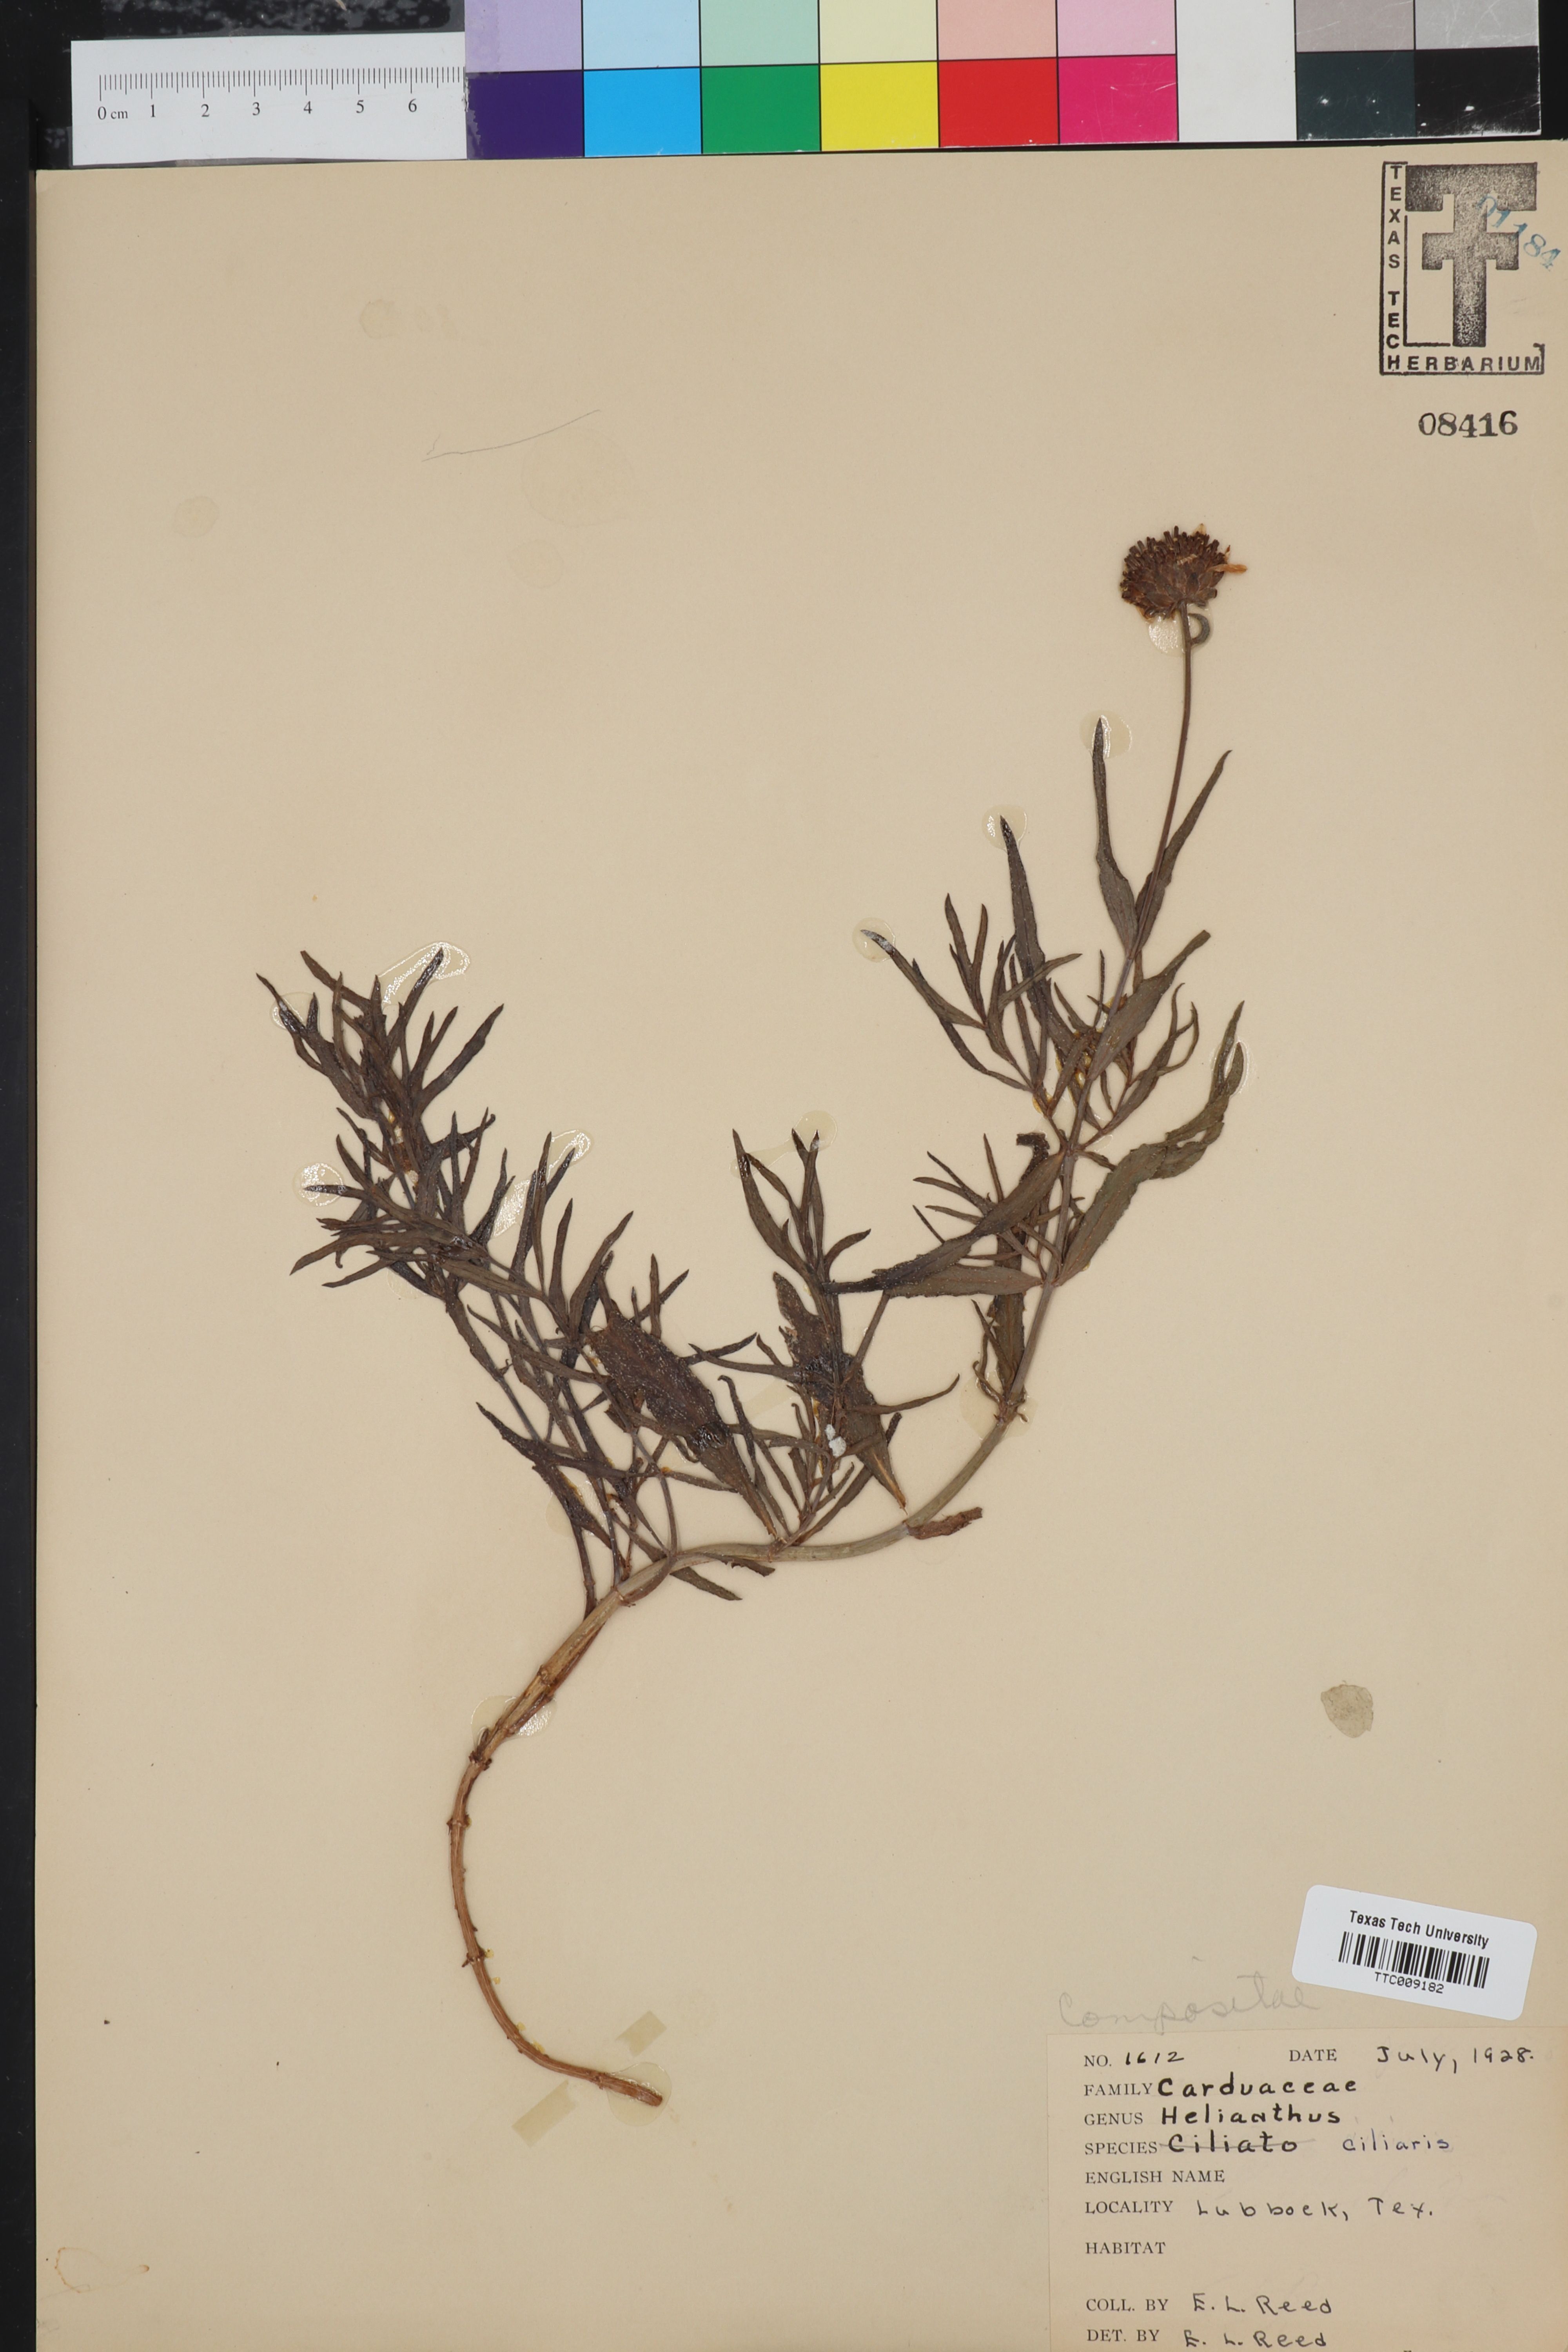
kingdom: Plantae
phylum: Tracheophyta
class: Magnoliopsida
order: Asterales
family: Asteraceae
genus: Helianthus
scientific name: Helianthus ciliaris
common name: Texas blueweed
